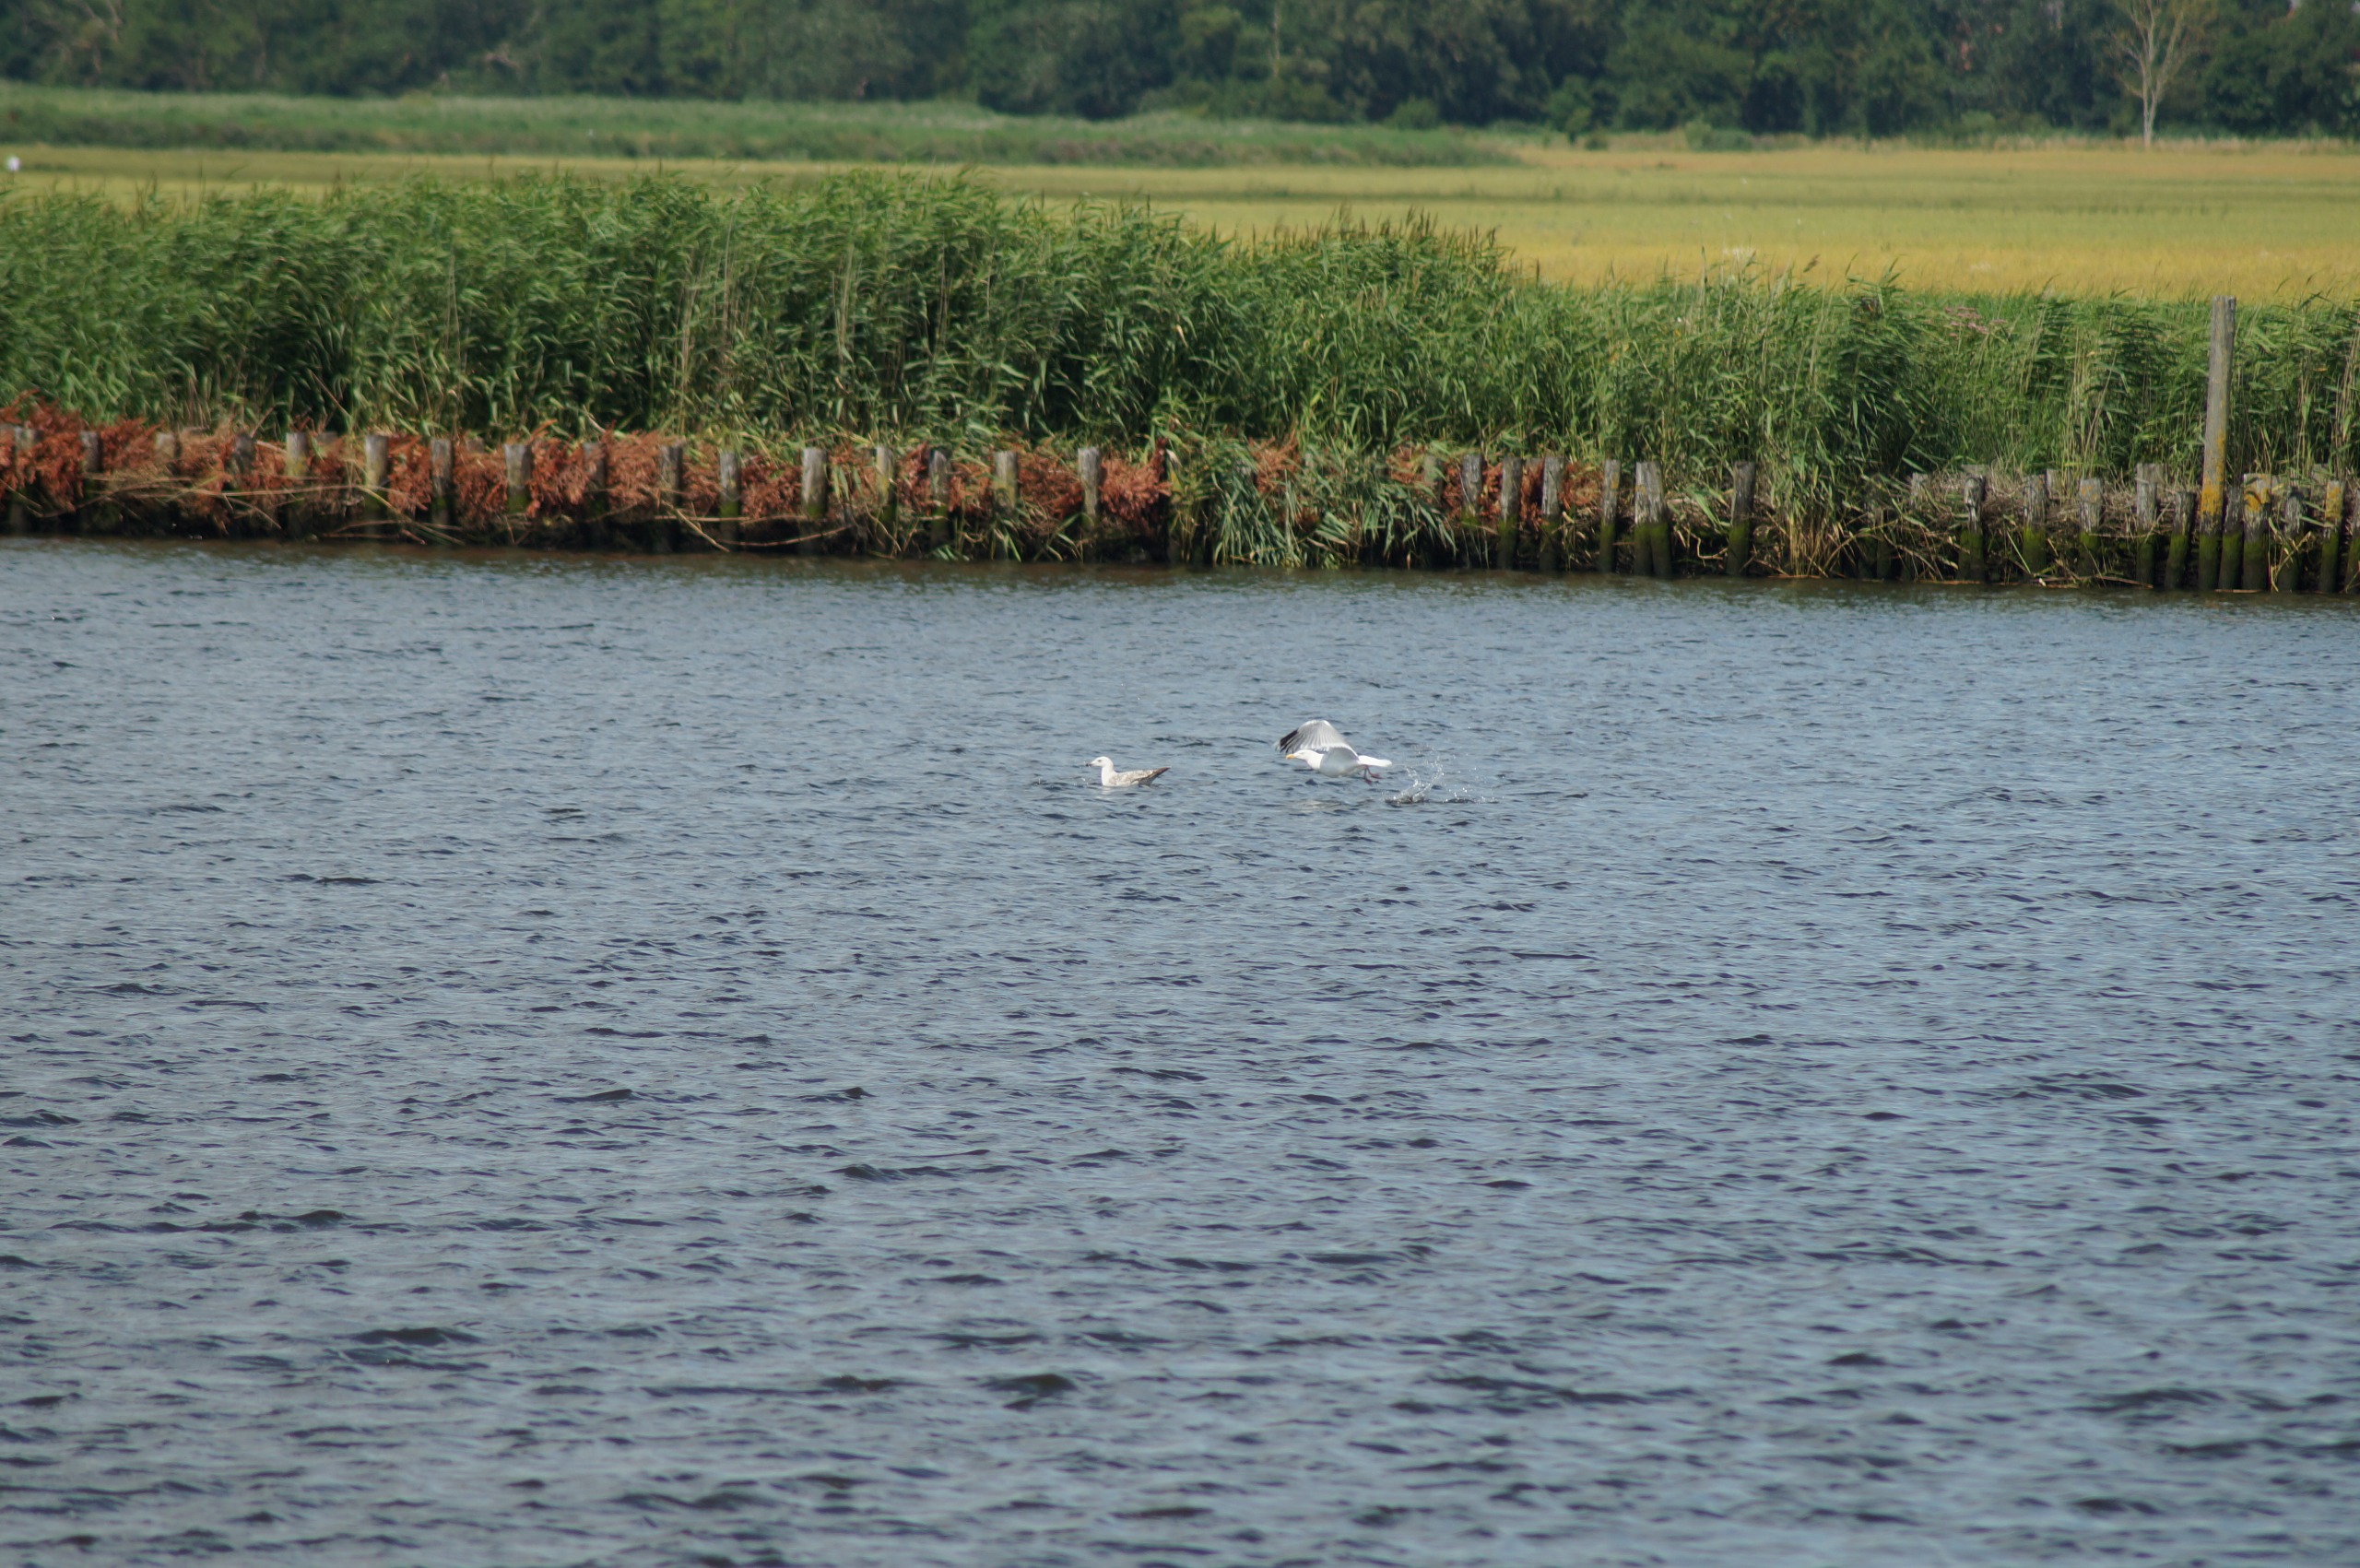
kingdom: Animalia
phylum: Chordata
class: Aves
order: Charadriiformes
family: Laridae
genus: Larus
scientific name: Larus argentatus
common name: Sølvmåge
